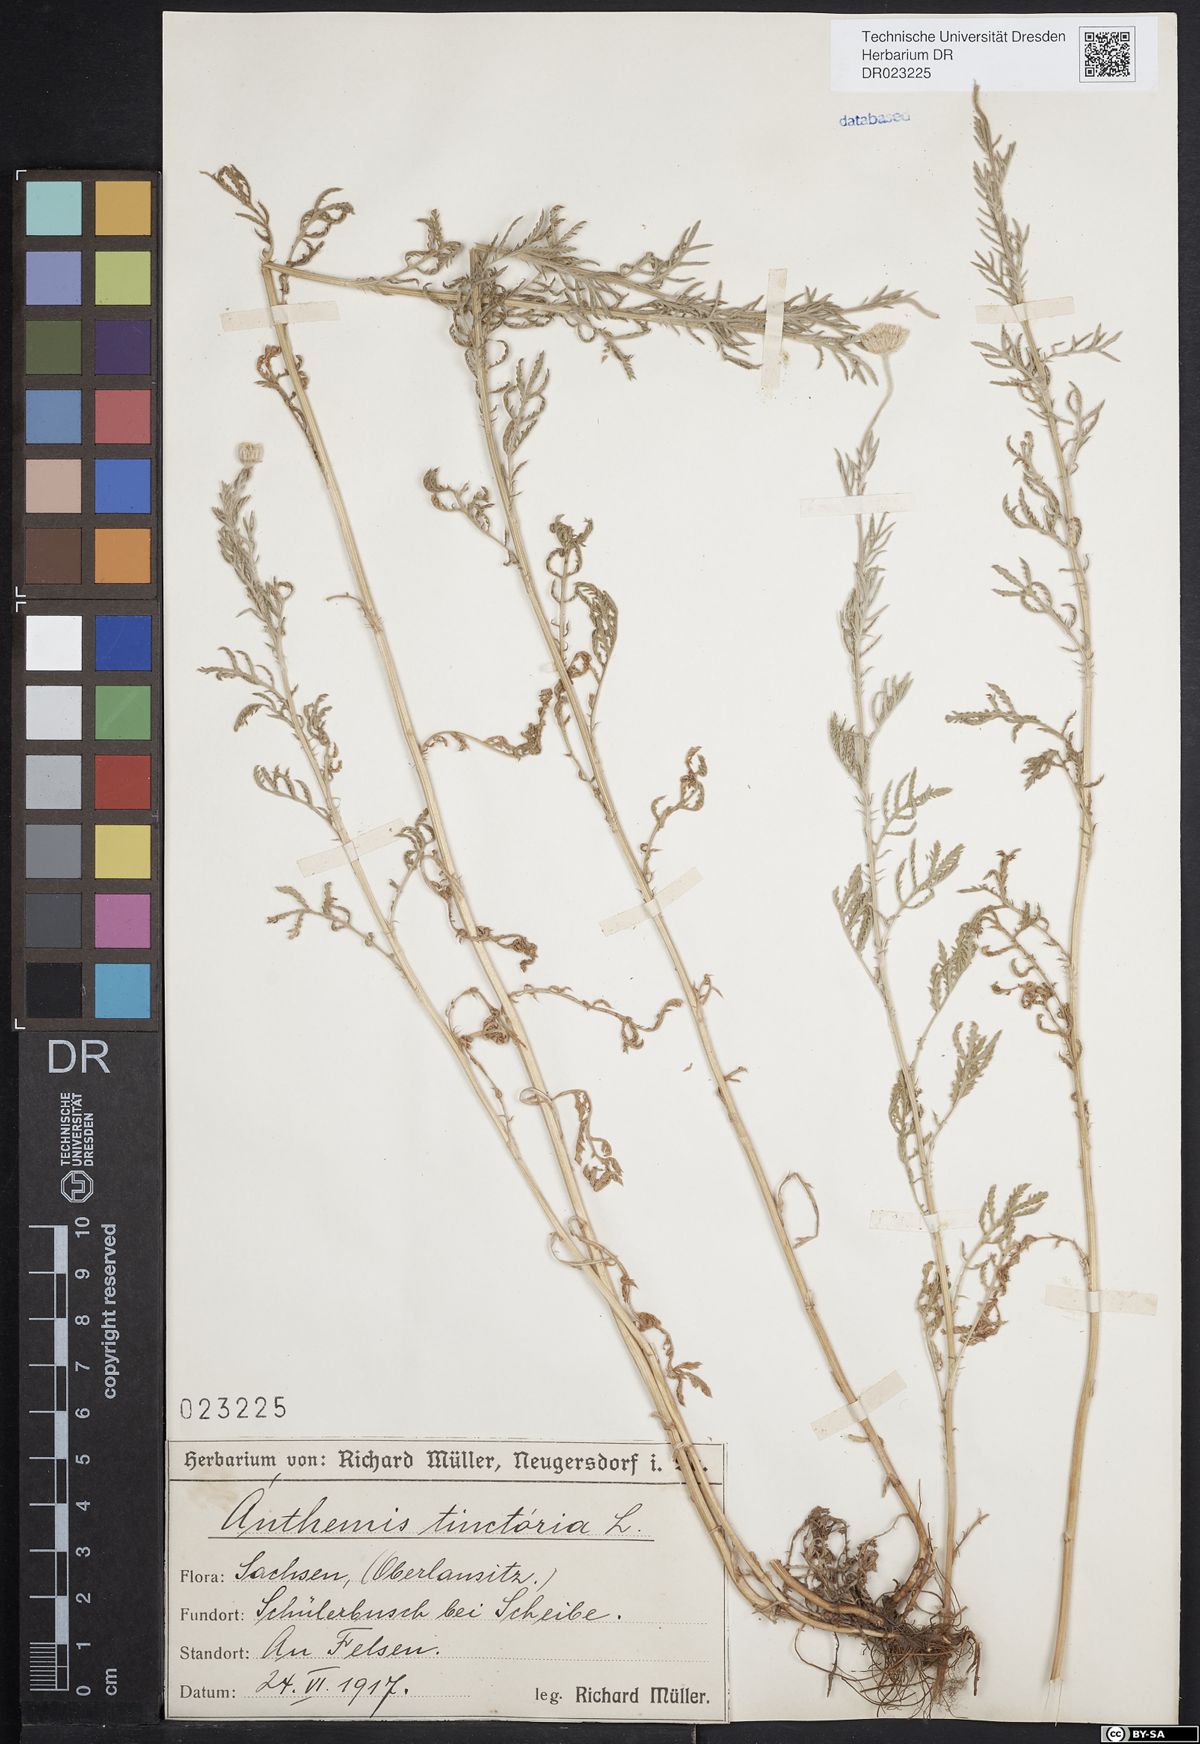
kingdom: Plantae
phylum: Tracheophyta
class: Magnoliopsida
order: Asterales
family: Asteraceae
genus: Cota
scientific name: Cota tinctoria
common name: Golden chamomile
